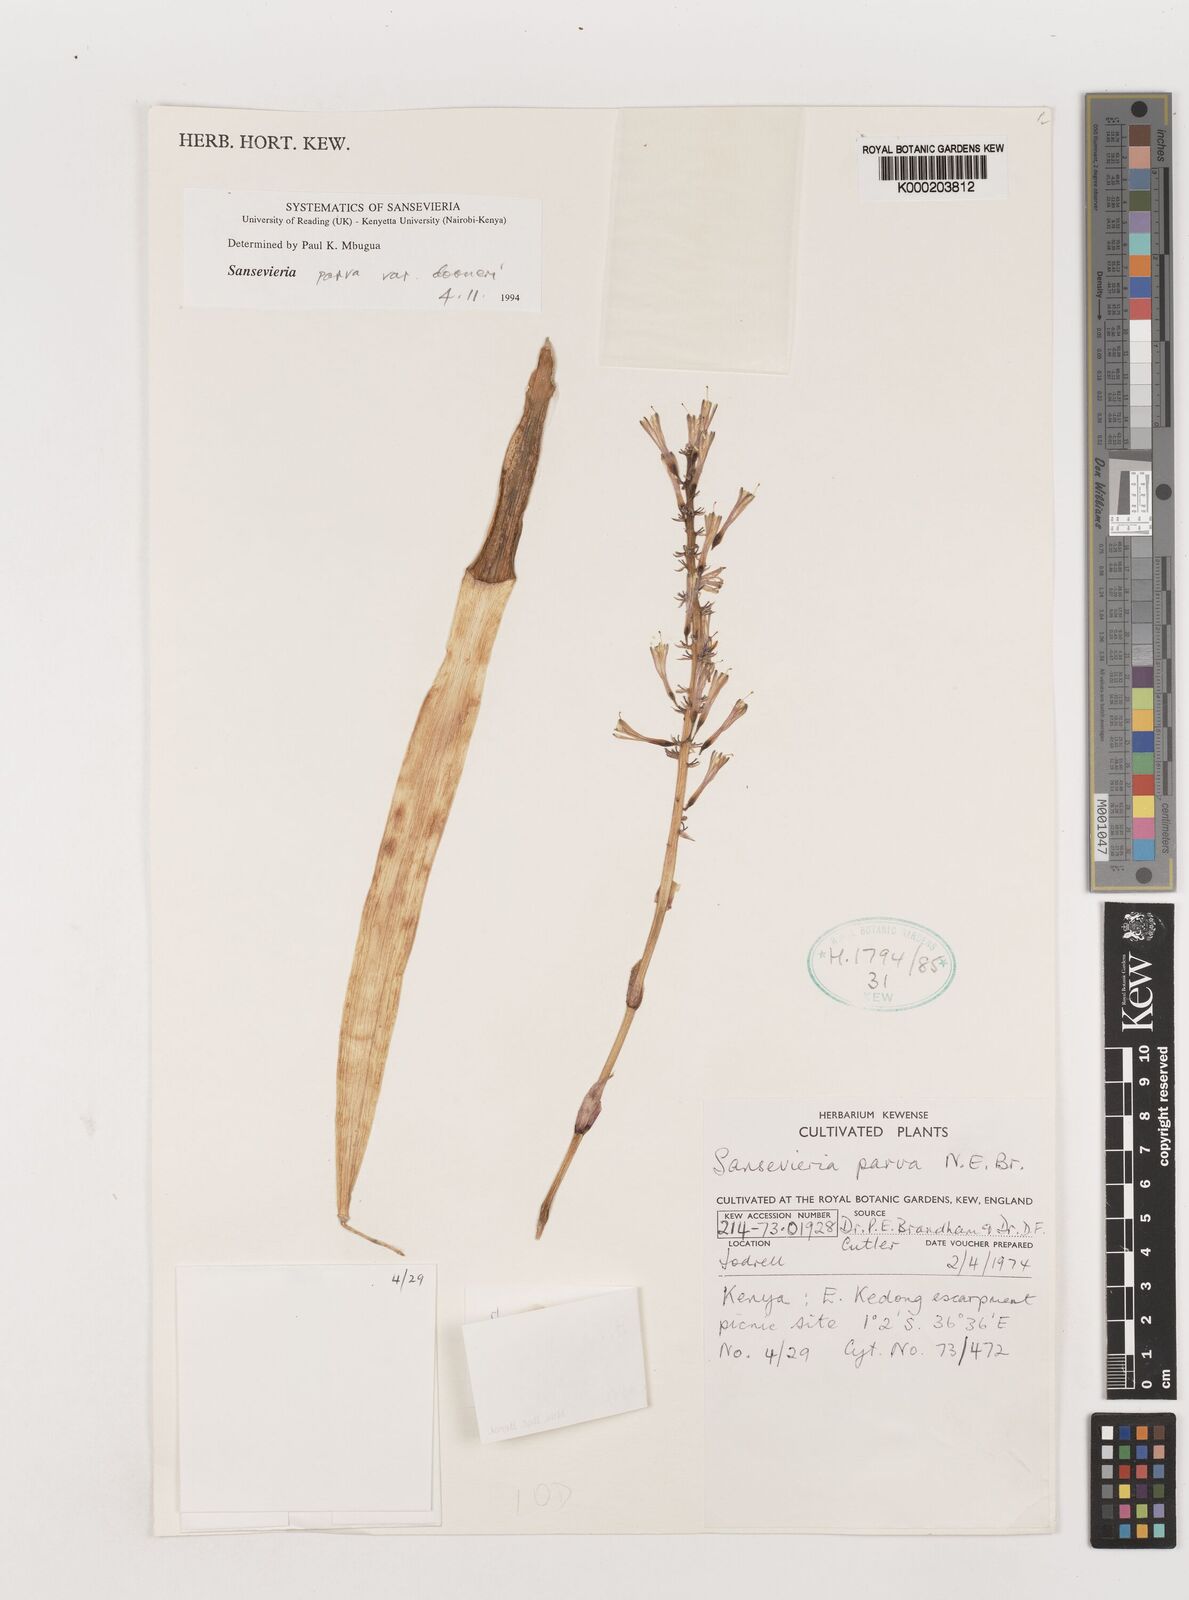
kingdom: Plantae
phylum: Tracheophyta
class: Liliopsida
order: Asparagales
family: Asparagaceae
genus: Dracaena
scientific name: Dracaena parva
